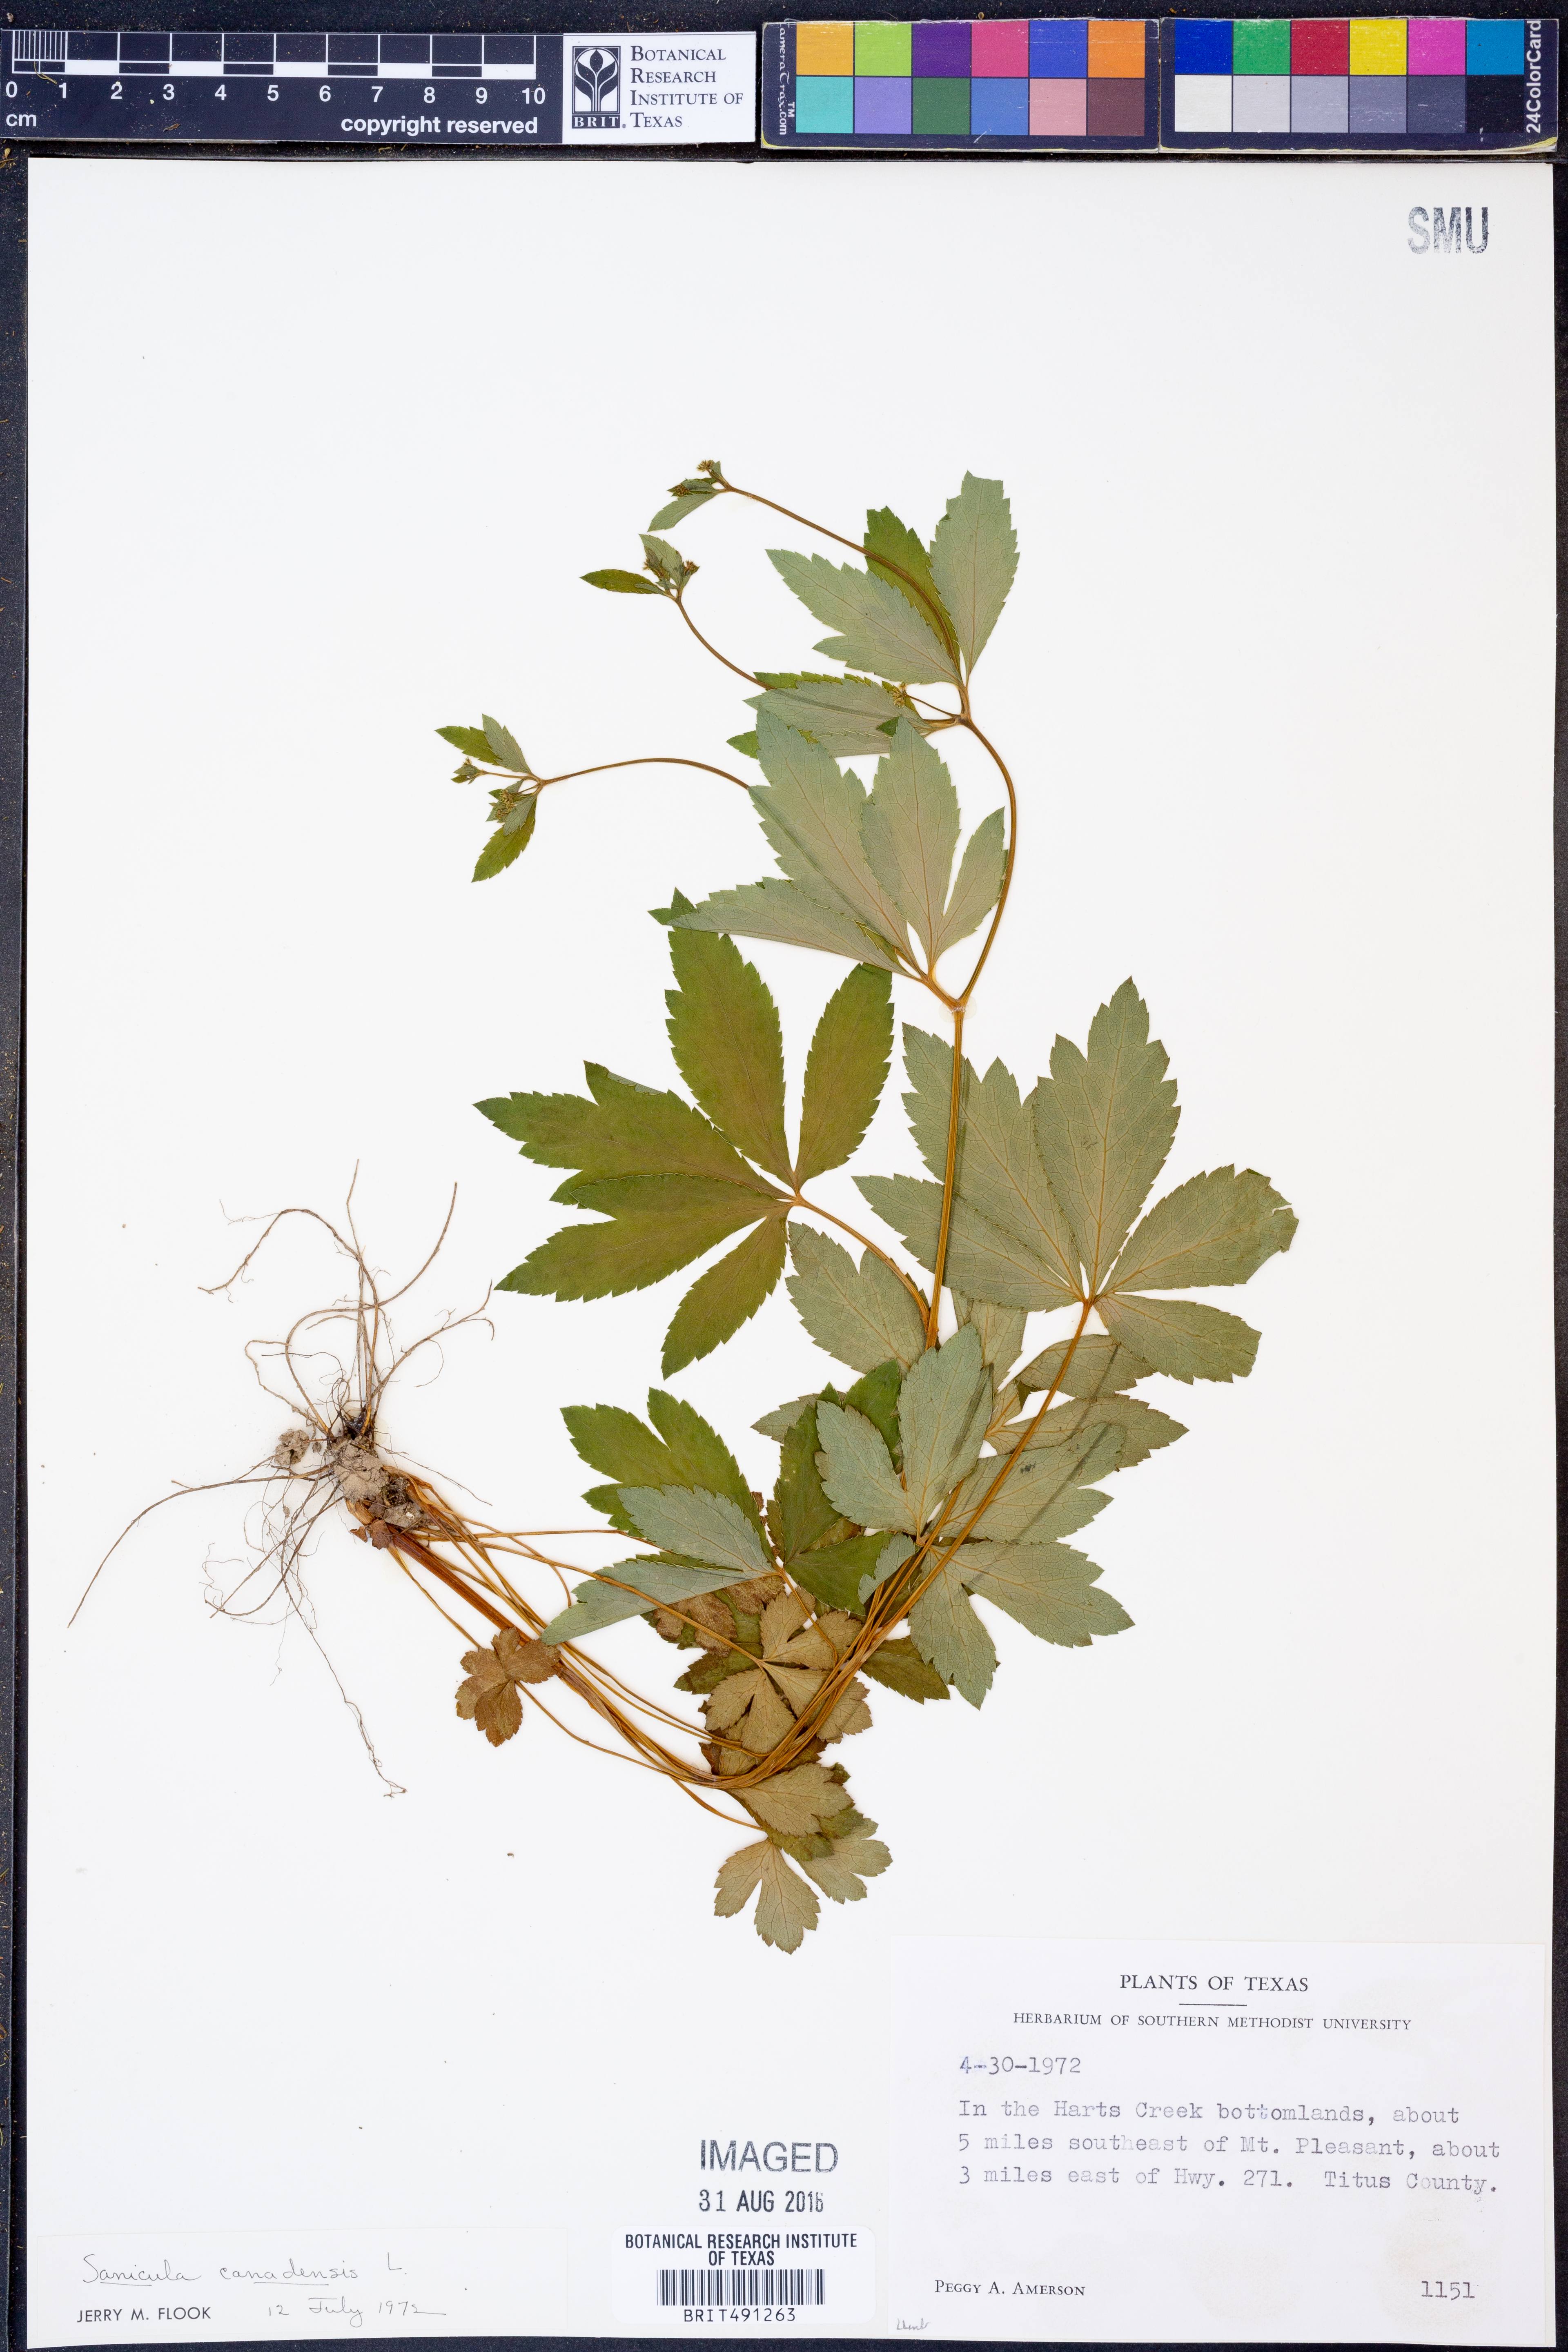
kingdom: Plantae
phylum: Tracheophyta
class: Magnoliopsida
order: Apiales
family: Apiaceae
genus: Sanicula
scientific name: Sanicula canadensis
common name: Canada sanicle
